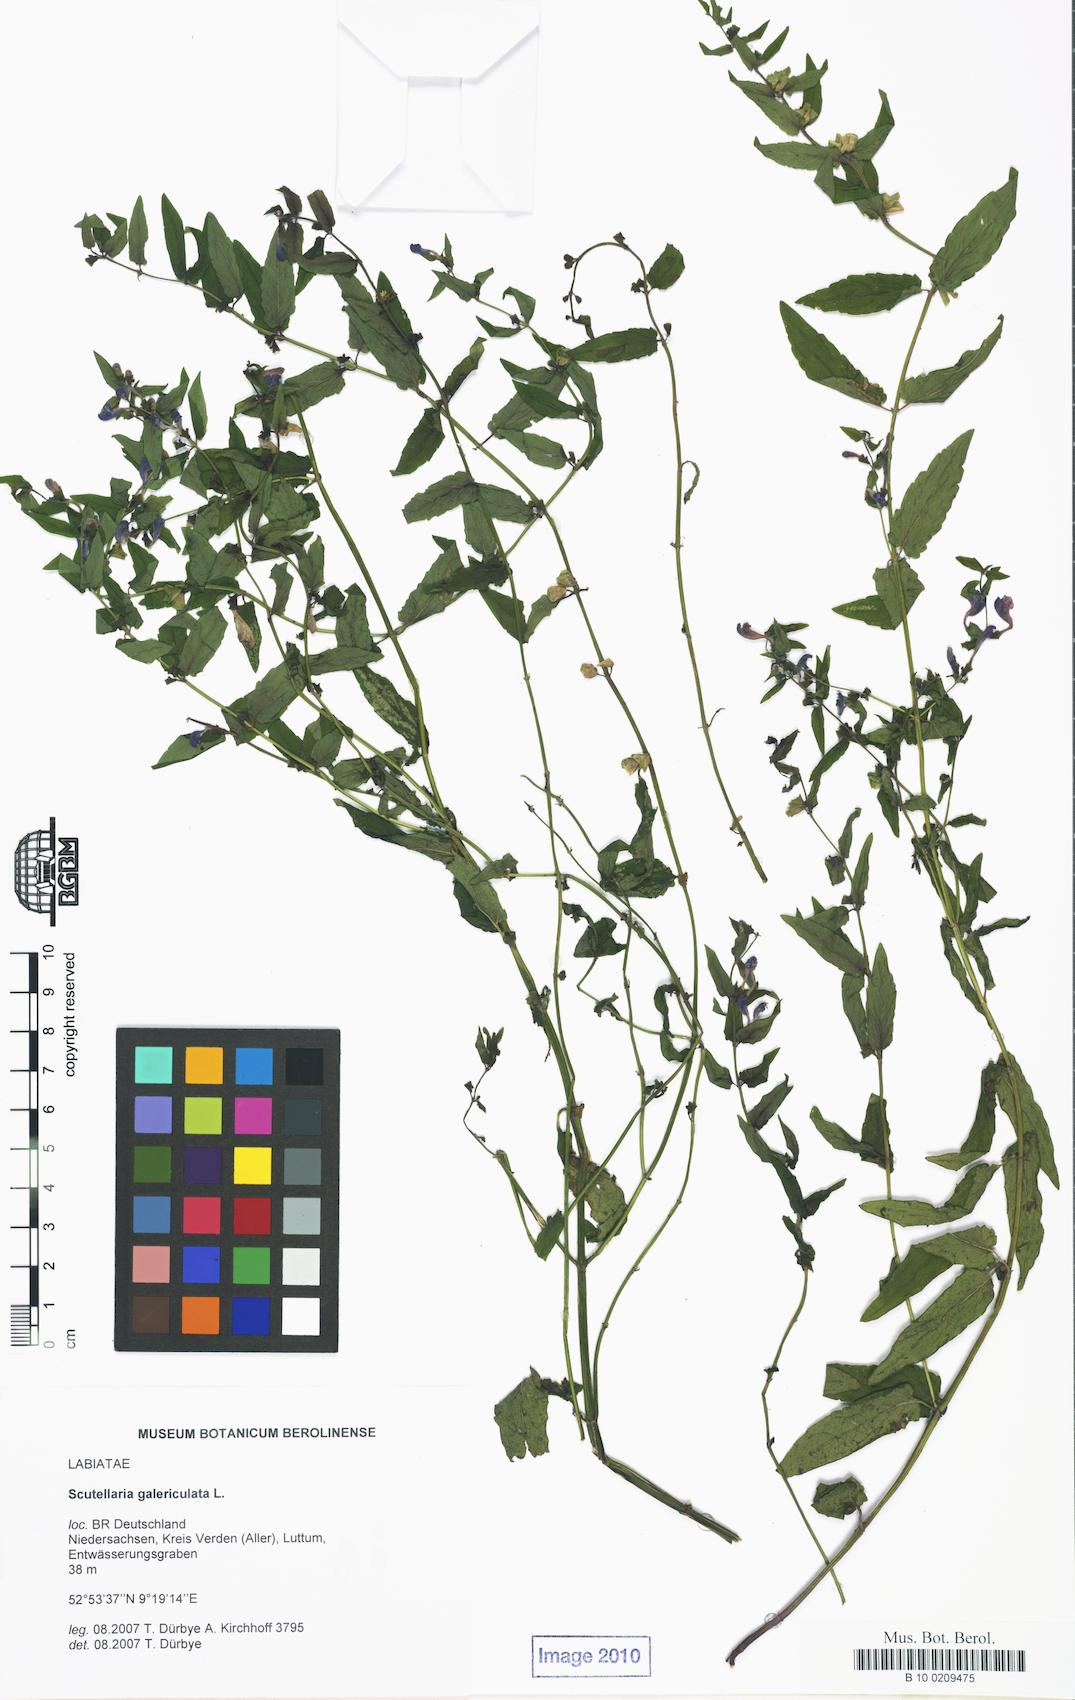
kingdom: Plantae
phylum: Tracheophyta
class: Magnoliopsida
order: Lamiales
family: Lamiaceae
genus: Scutellaria
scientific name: Scutellaria galericulata
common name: Skullcap
